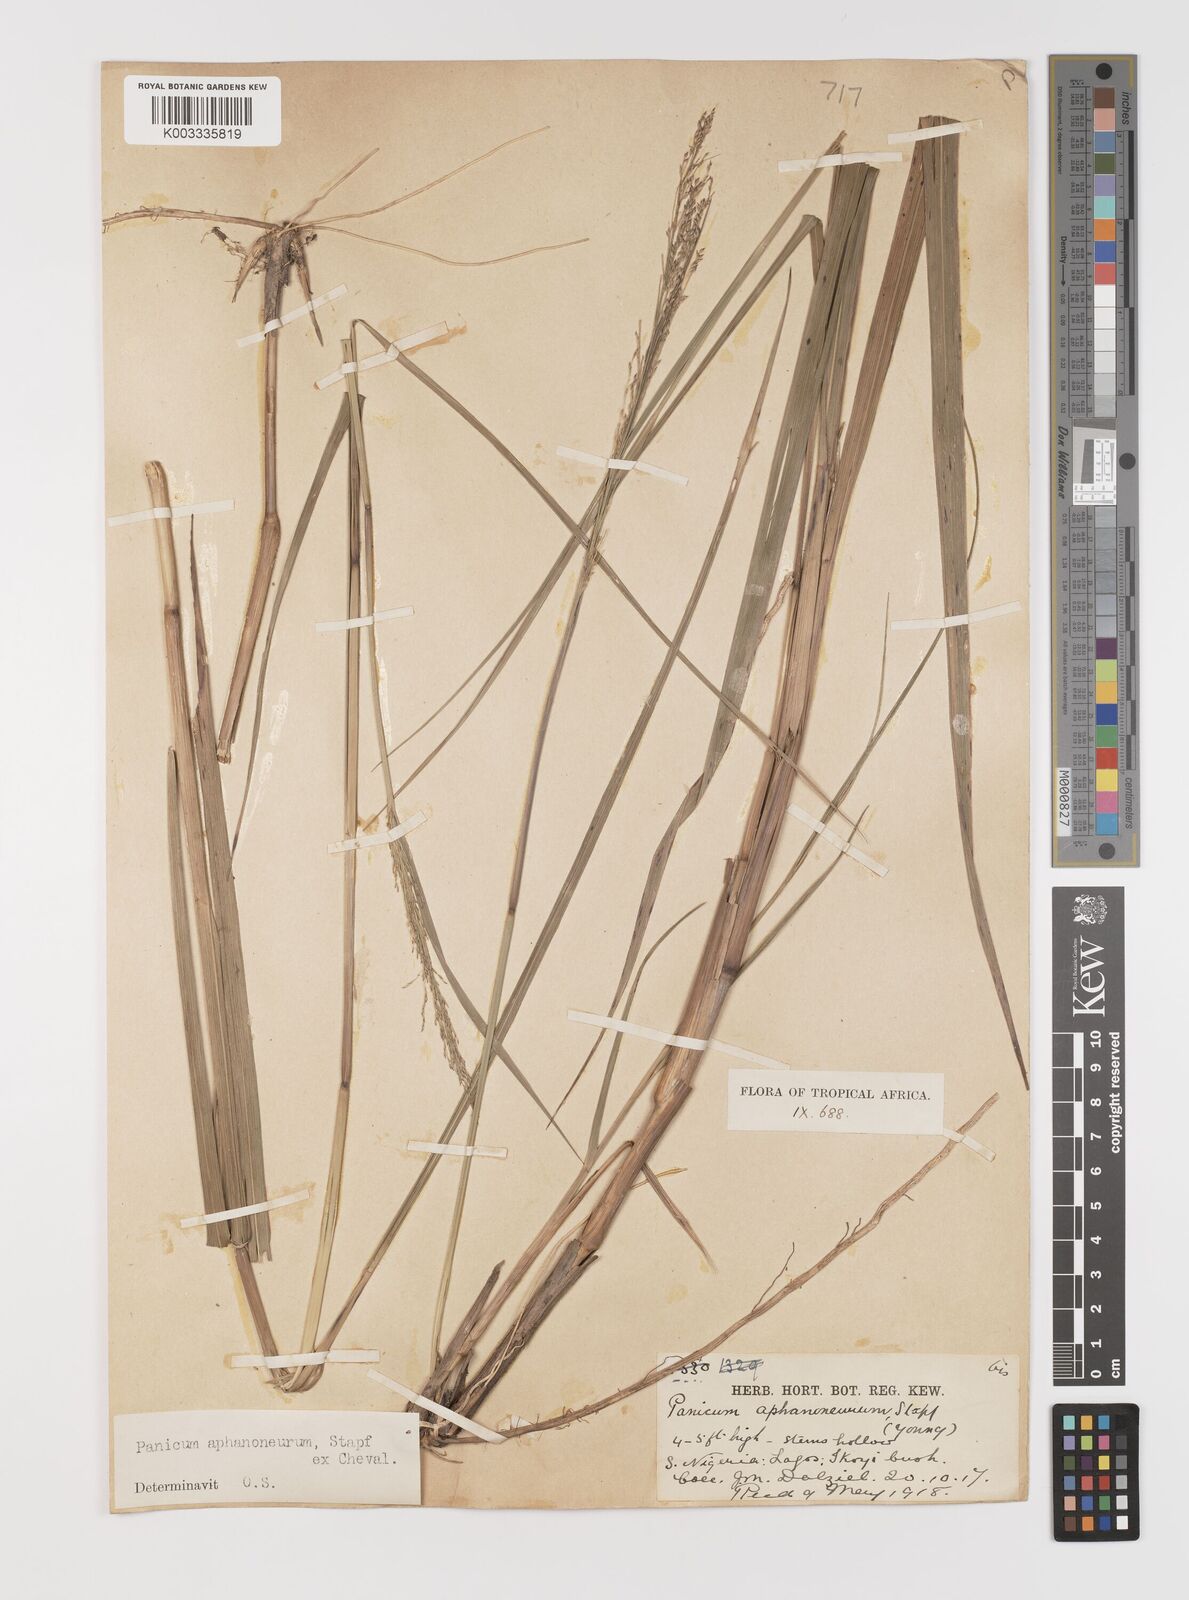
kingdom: Plantae
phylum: Tracheophyta
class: Liliopsida
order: Poales
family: Poaceae
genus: Panicum
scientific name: Panicum fluviicola
